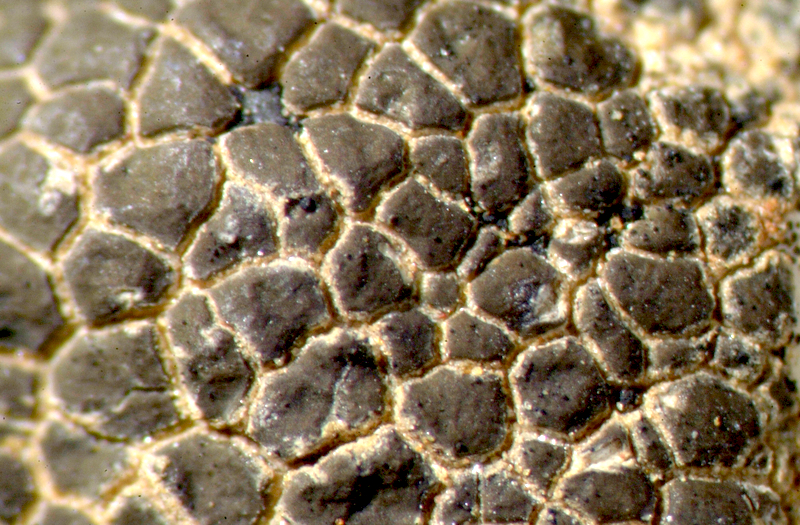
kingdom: Fungi
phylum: Ascomycota
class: Lecanoromycetes
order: Caliciales
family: Physciaceae
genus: Physcia
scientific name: Physcia
